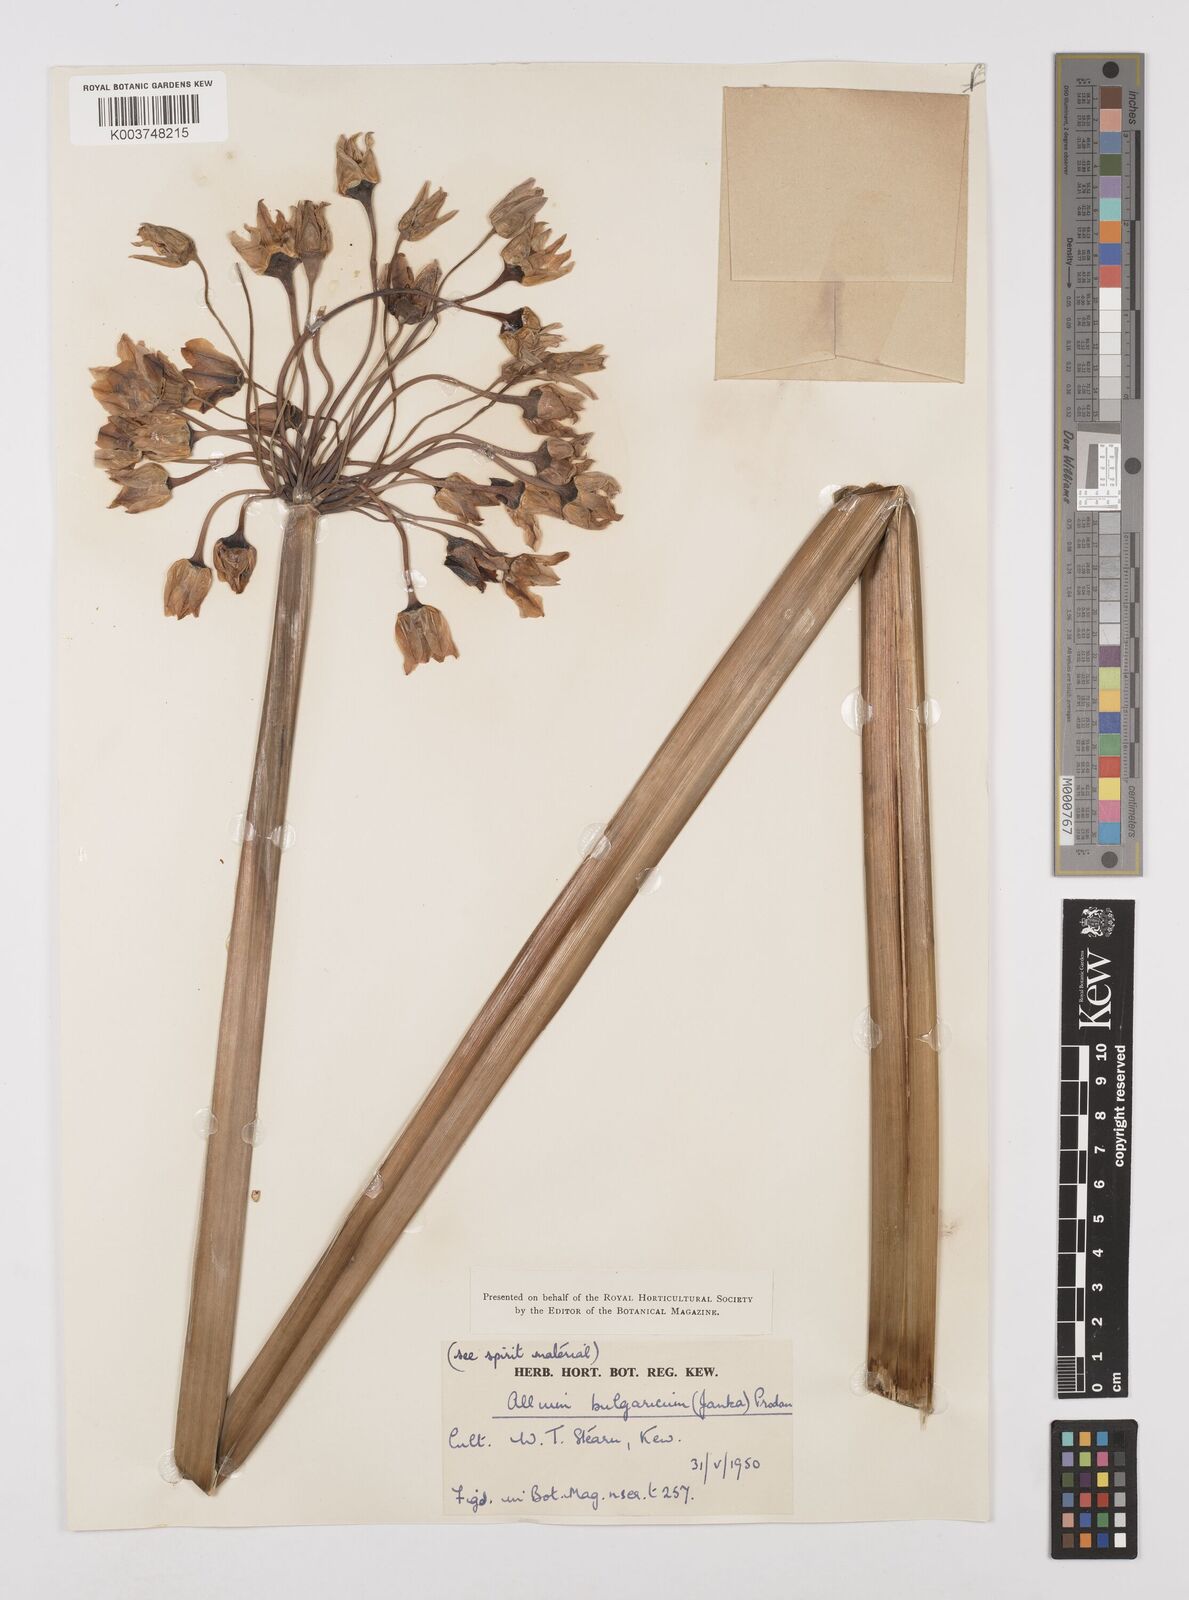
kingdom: Plantae
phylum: Tracheophyta
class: Liliopsida
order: Asparagales
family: Amaryllidaceae
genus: Allium
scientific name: Allium siculum
